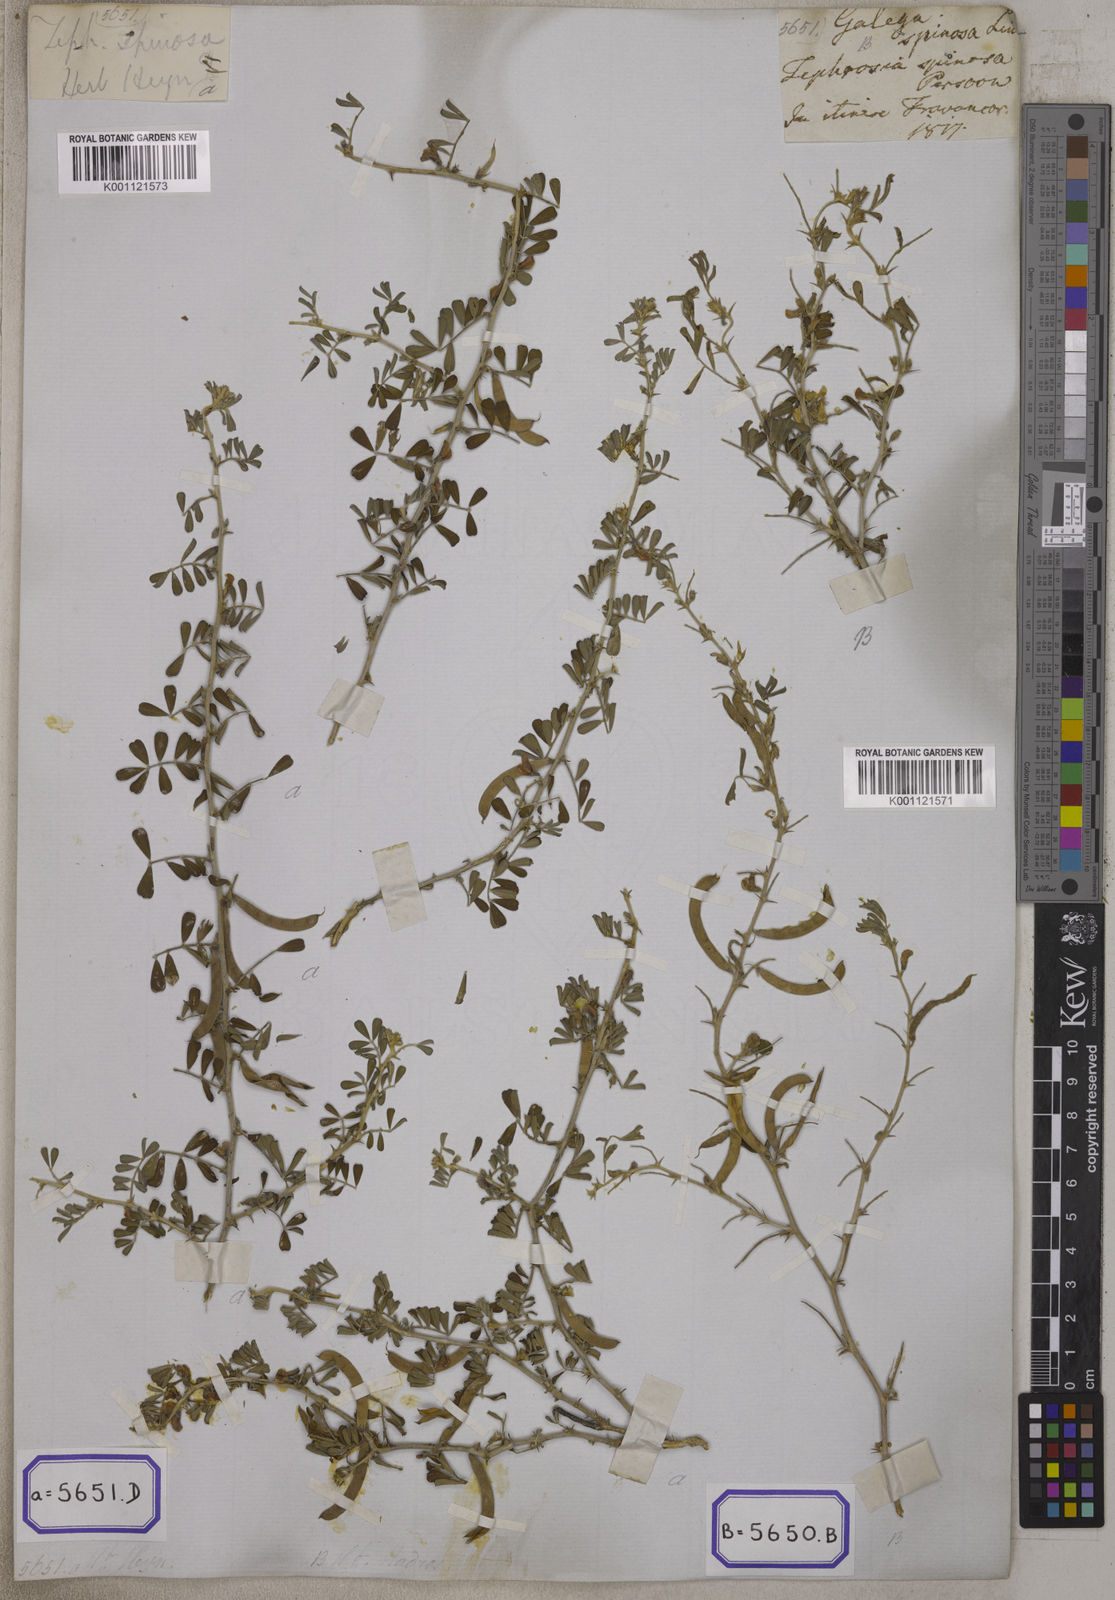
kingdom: Plantae
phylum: Tracheophyta
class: Magnoliopsida
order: Fabales
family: Fabaceae
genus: Galega
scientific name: Galega
